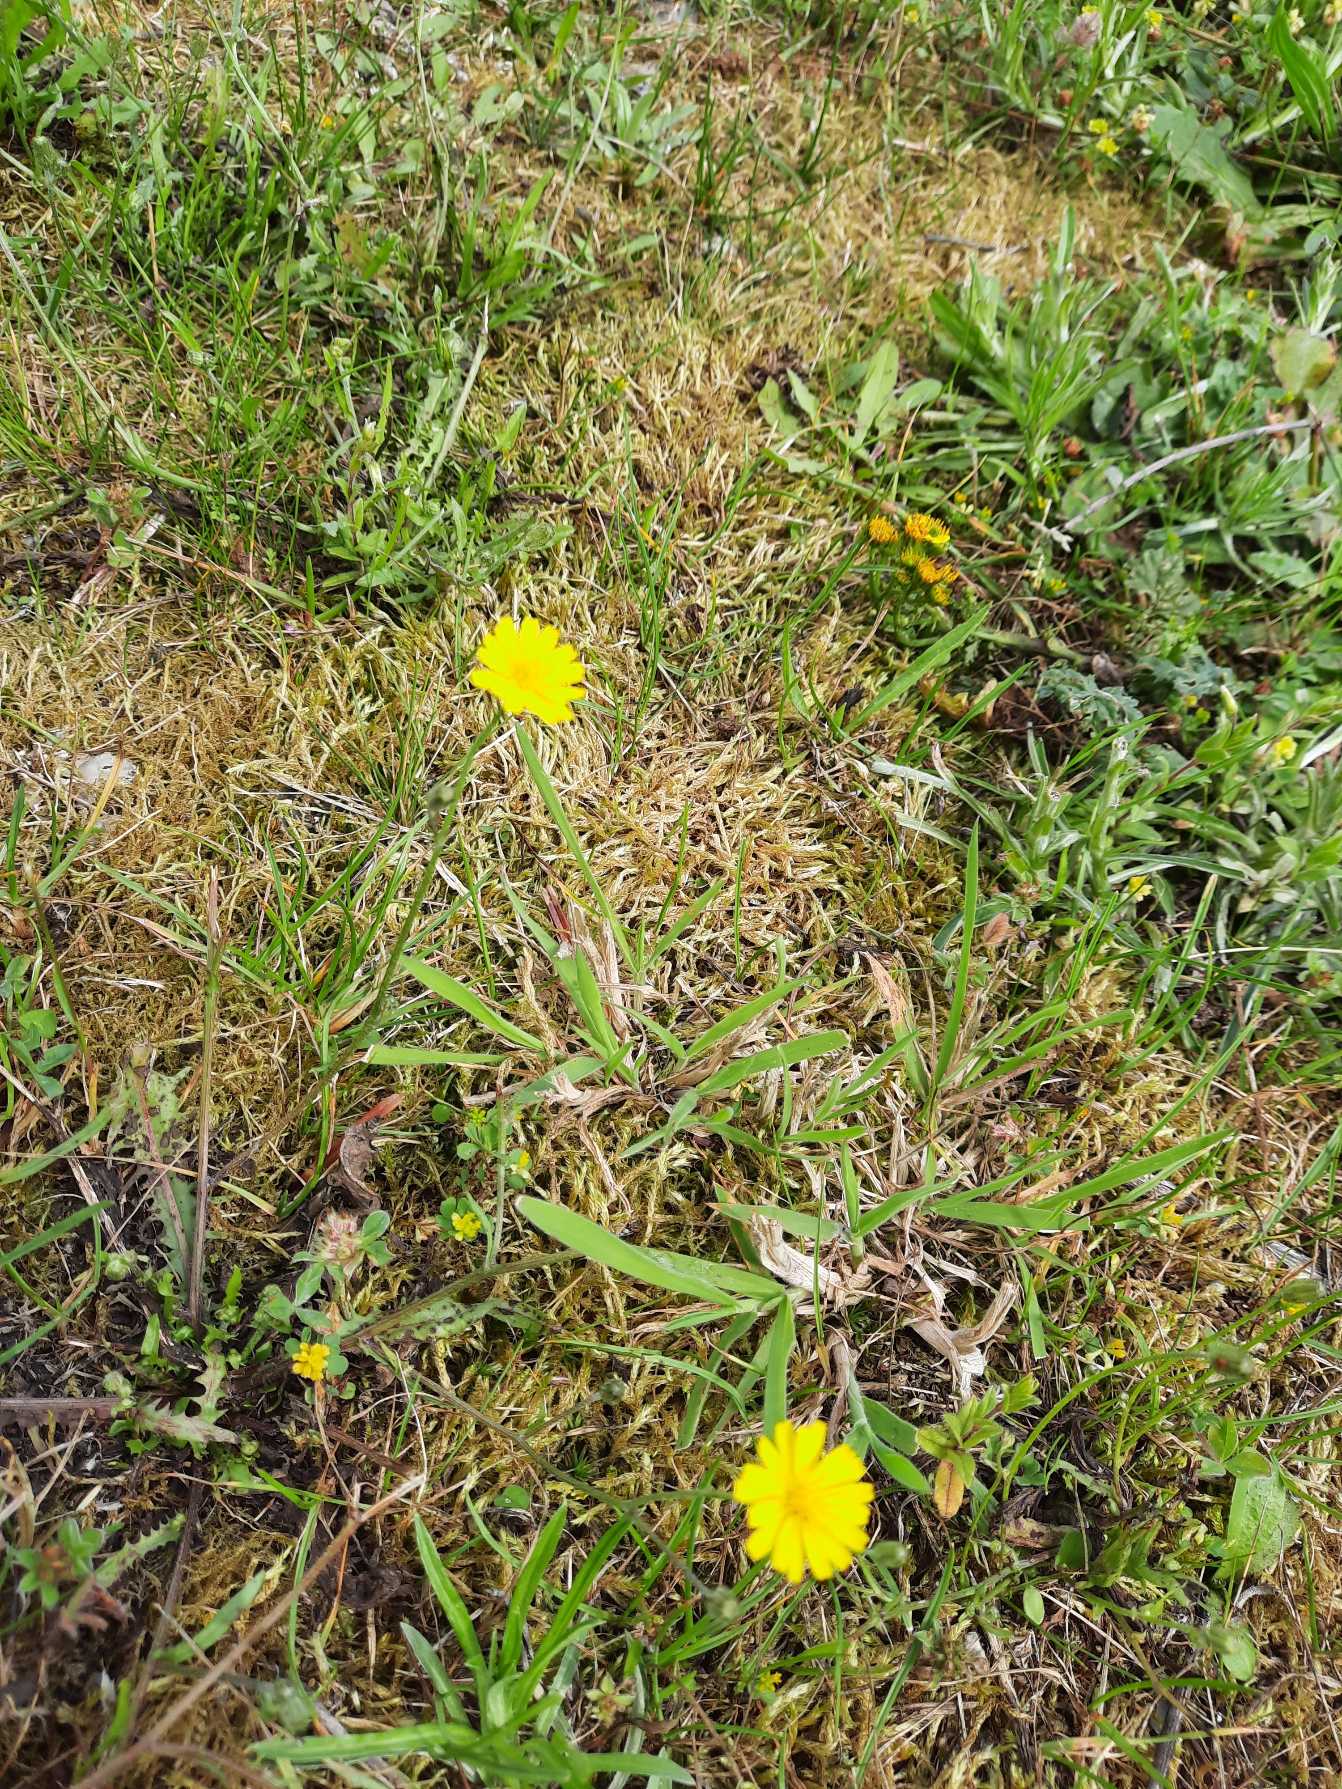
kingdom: Plantae
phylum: Tracheophyta
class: Magnoliopsida
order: Asterales
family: Asteraceae
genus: Crepis
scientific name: Crepis capillaris
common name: Grøn høgeskæg
